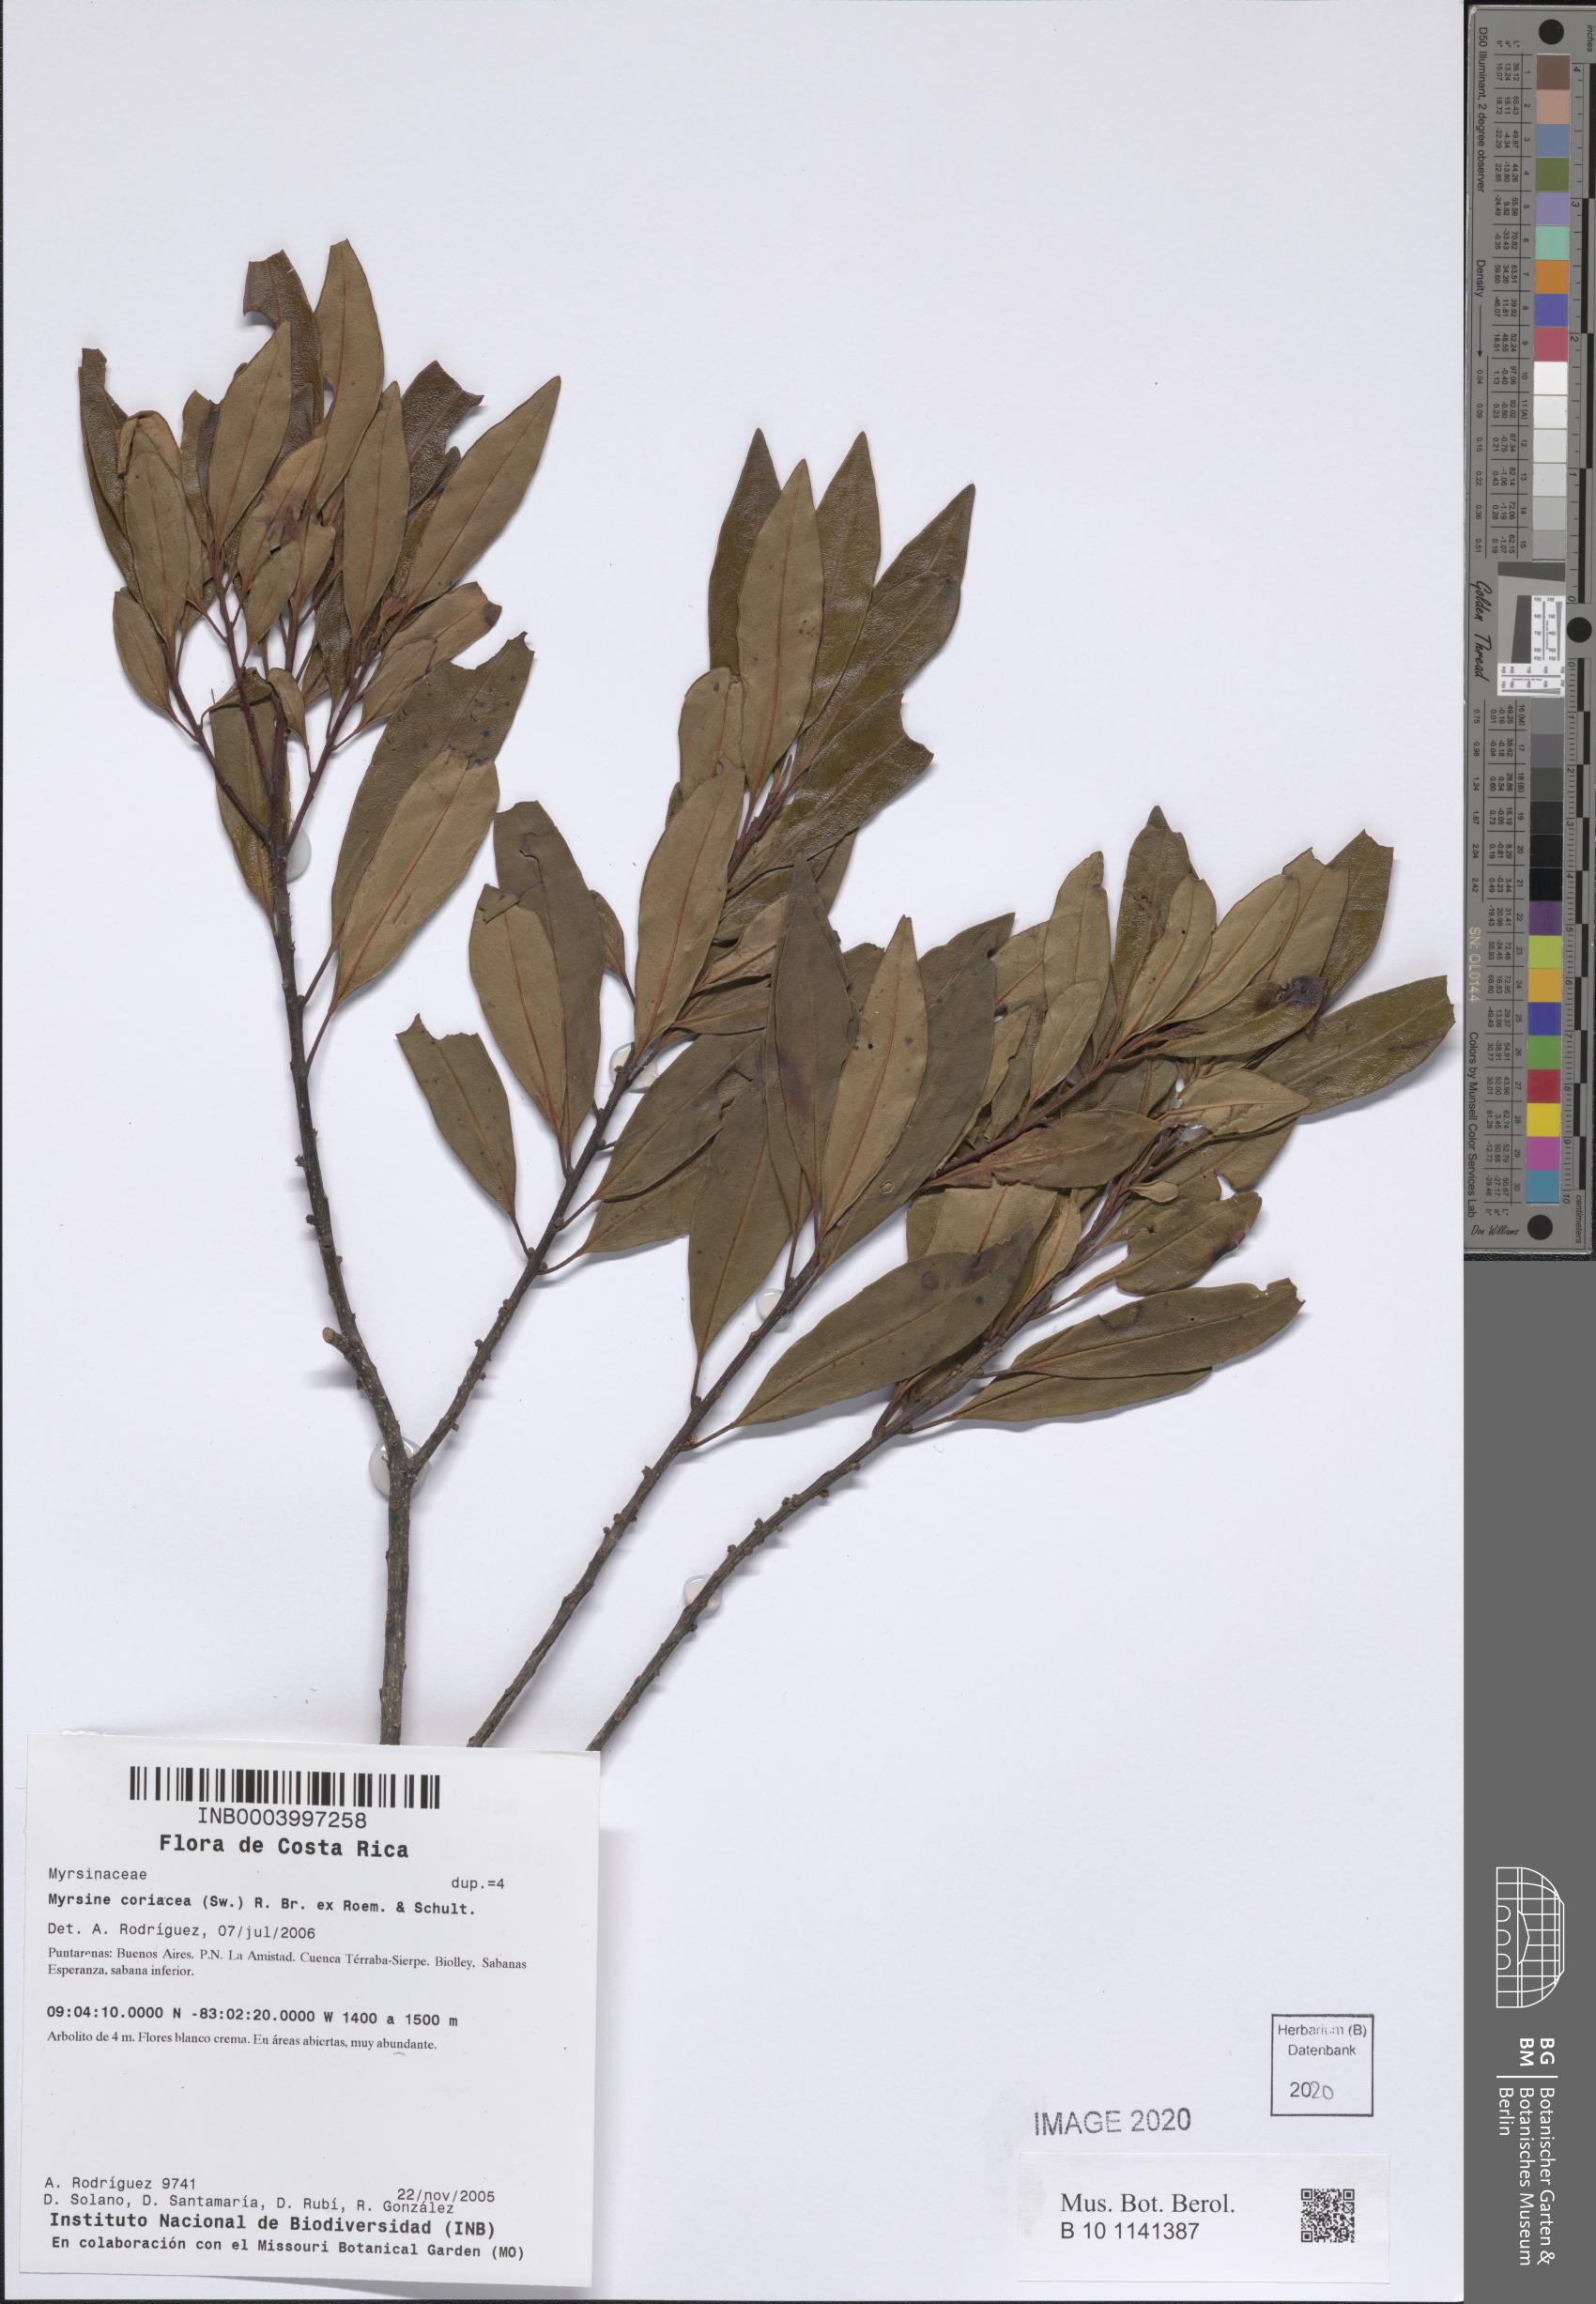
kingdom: Plantae
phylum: Tracheophyta
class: Magnoliopsida
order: Ericales
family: Primulaceae
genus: Myrsine
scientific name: Myrsine coriacea
